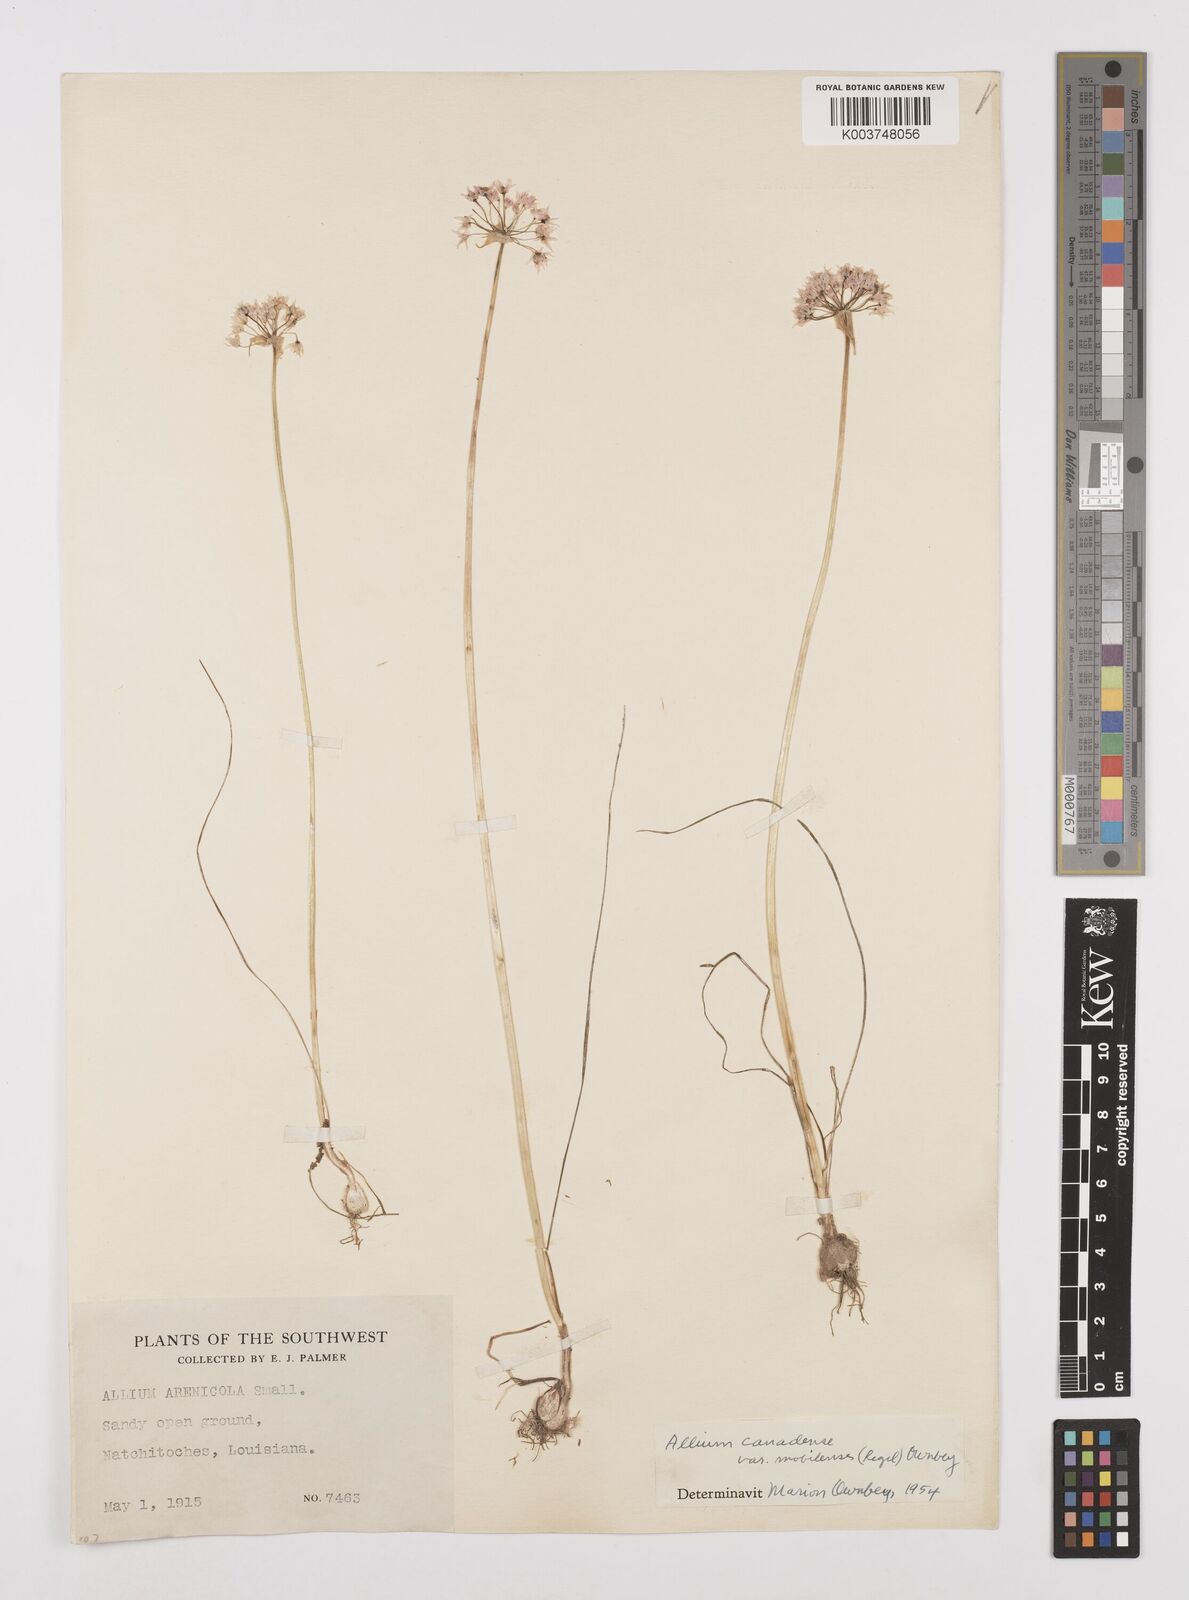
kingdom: Plantae
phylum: Tracheophyta
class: Liliopsida
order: Asparagales
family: Amaryllidaceae
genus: Allium
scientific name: Allium canadense
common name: Meadow garlic
